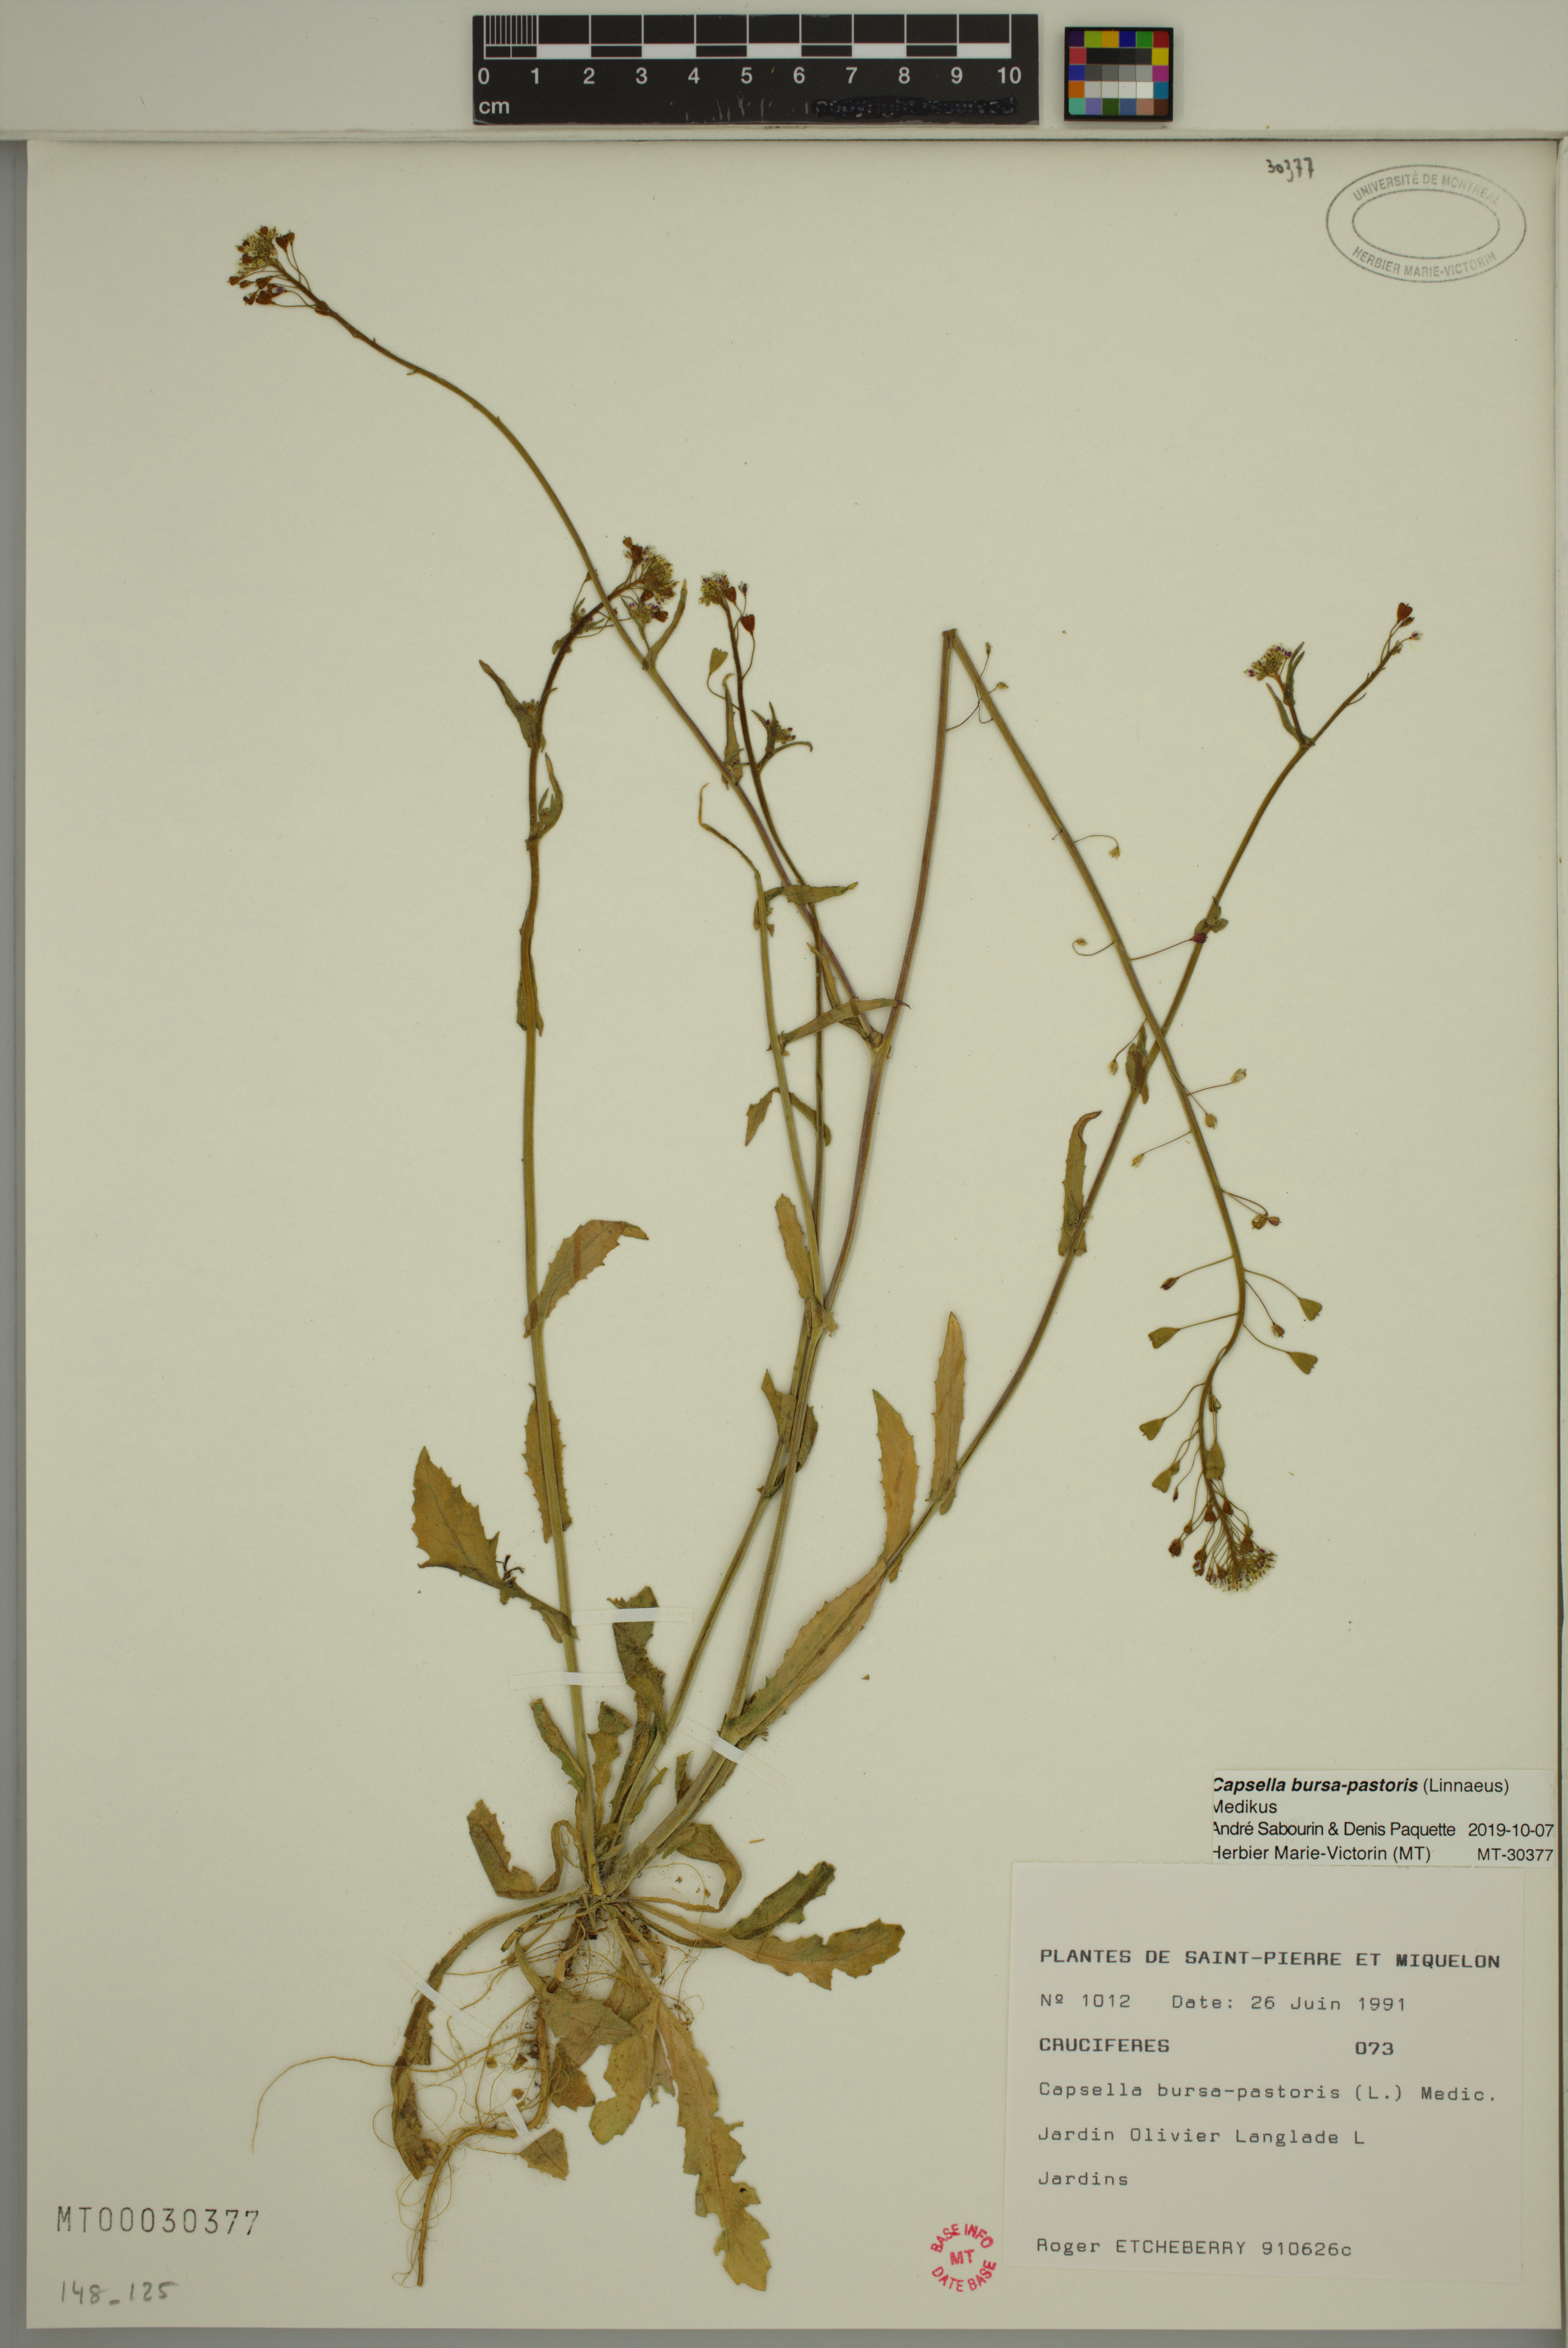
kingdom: Plantae
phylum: Tracheophyta
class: Magnoliopsida
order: Brassicales
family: Brassicaceae
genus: Capsella
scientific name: Capsella bursa-pastoris
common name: Shepherd's purse
